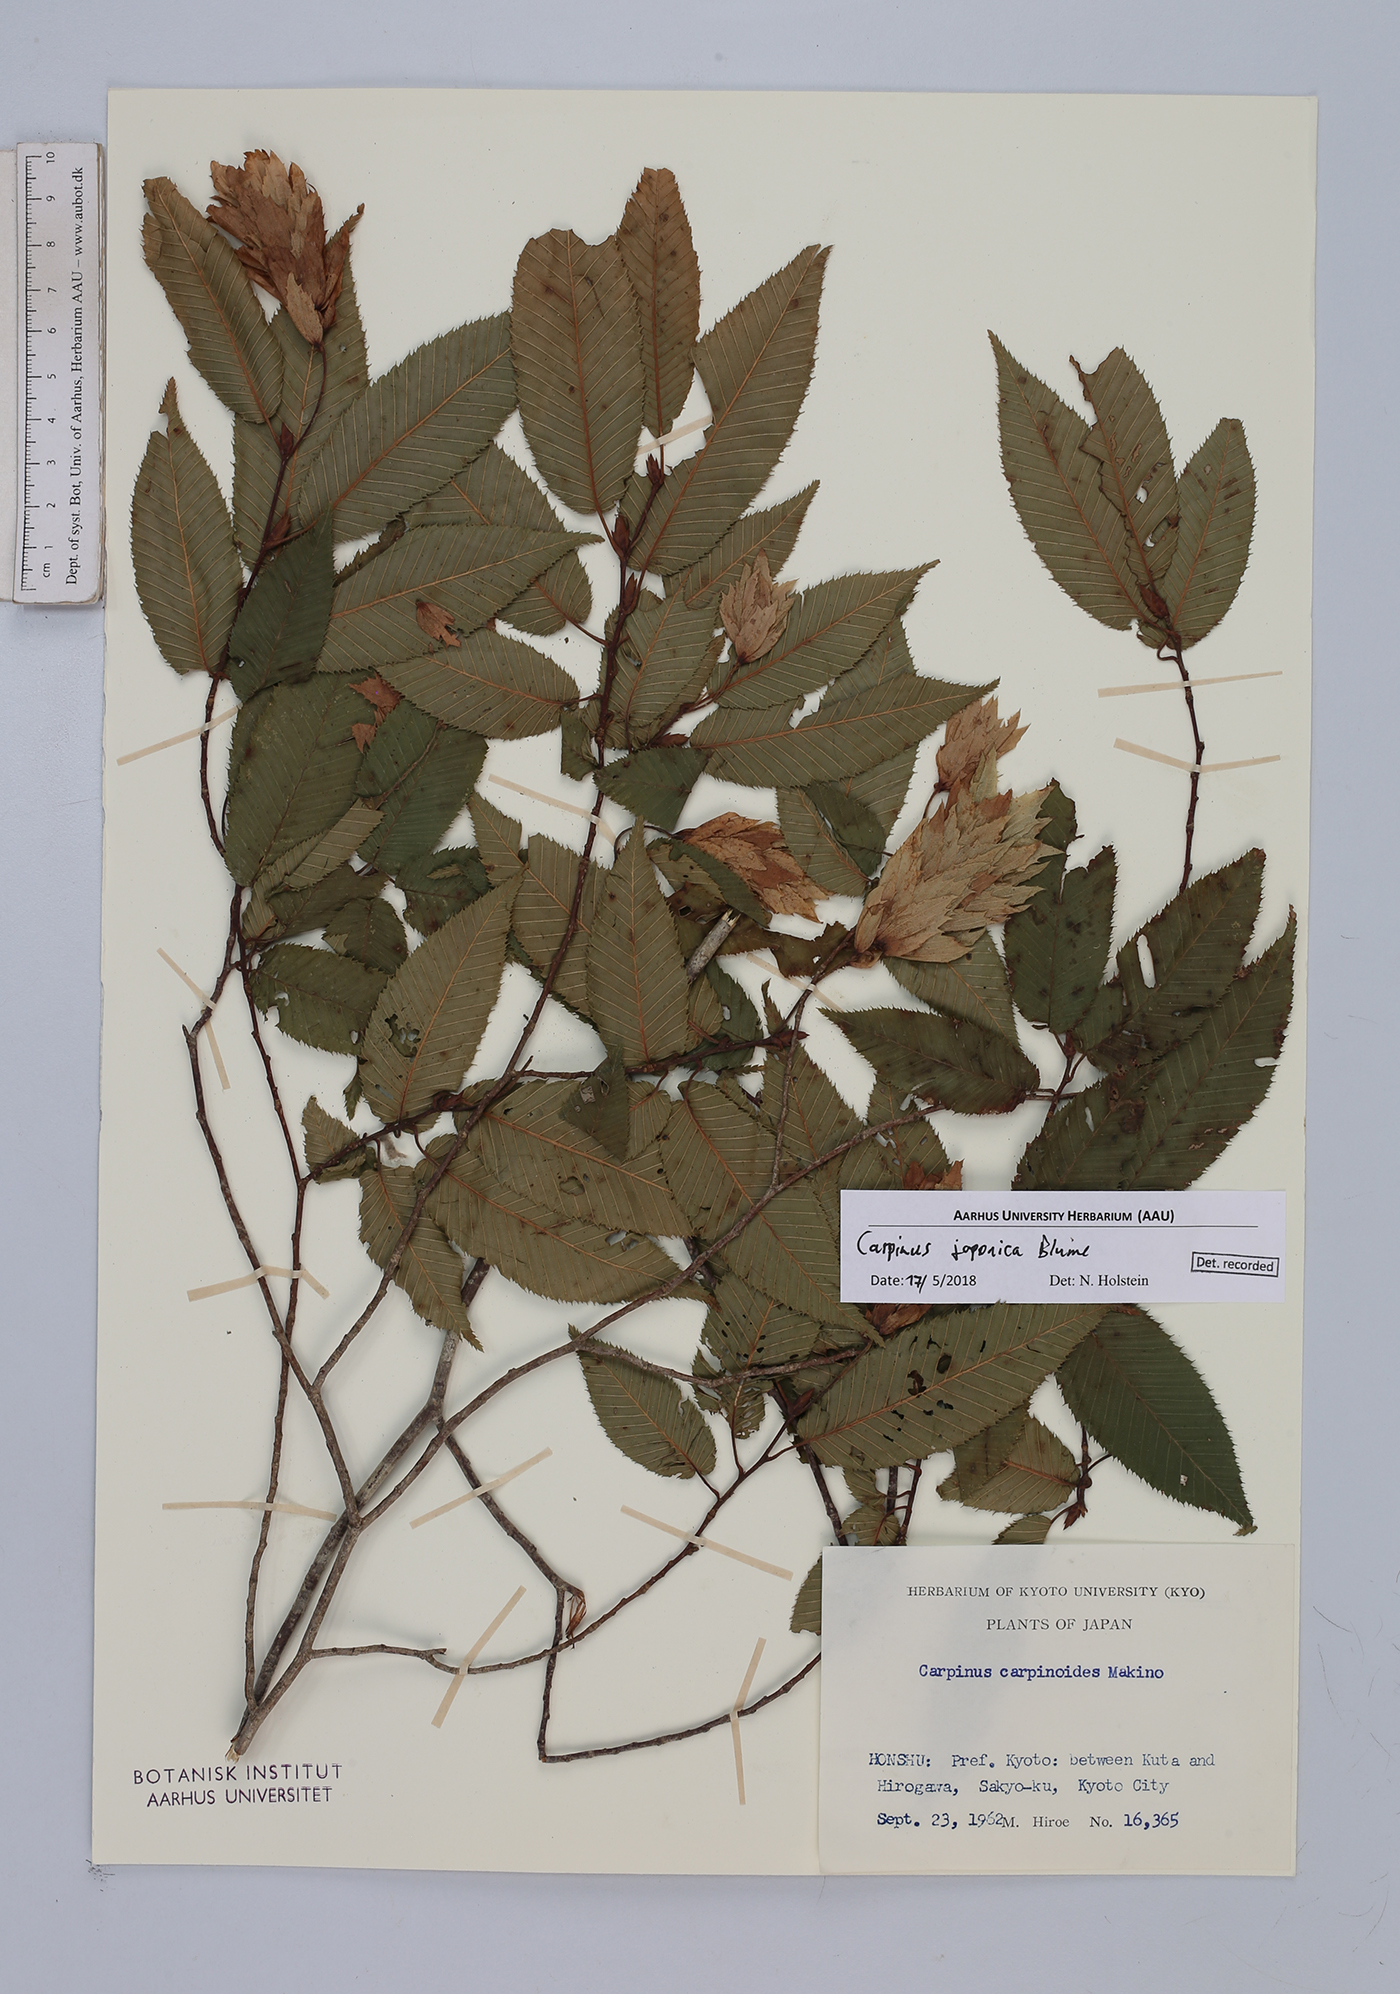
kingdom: Plantae
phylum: Tracheophyta
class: Magnoliopsida
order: Fagales
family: Betulaceae
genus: Carpinus
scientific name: Carpinus japonica
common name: Japanese hornbeam
